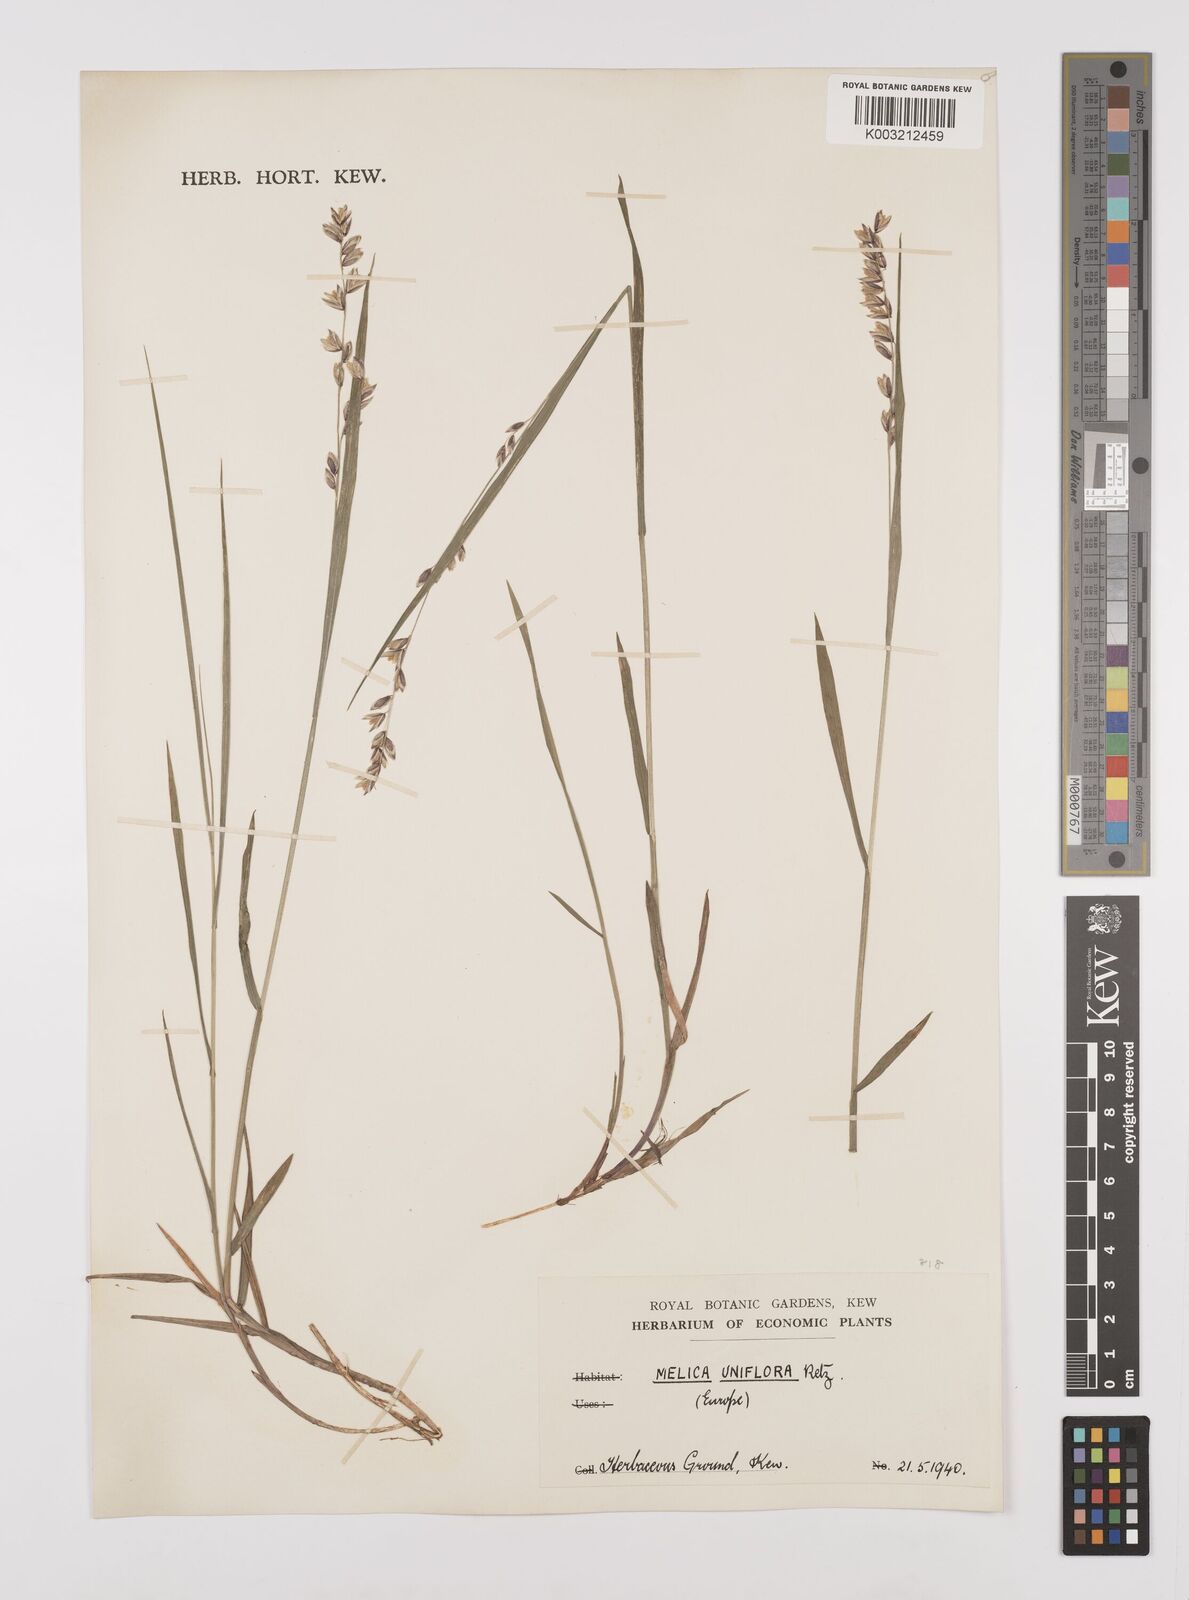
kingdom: Plantae
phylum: Tracheophyta
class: Liliopsida
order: Poales
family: Poaceae
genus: Melica
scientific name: Melica uniflora
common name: Wood melick
